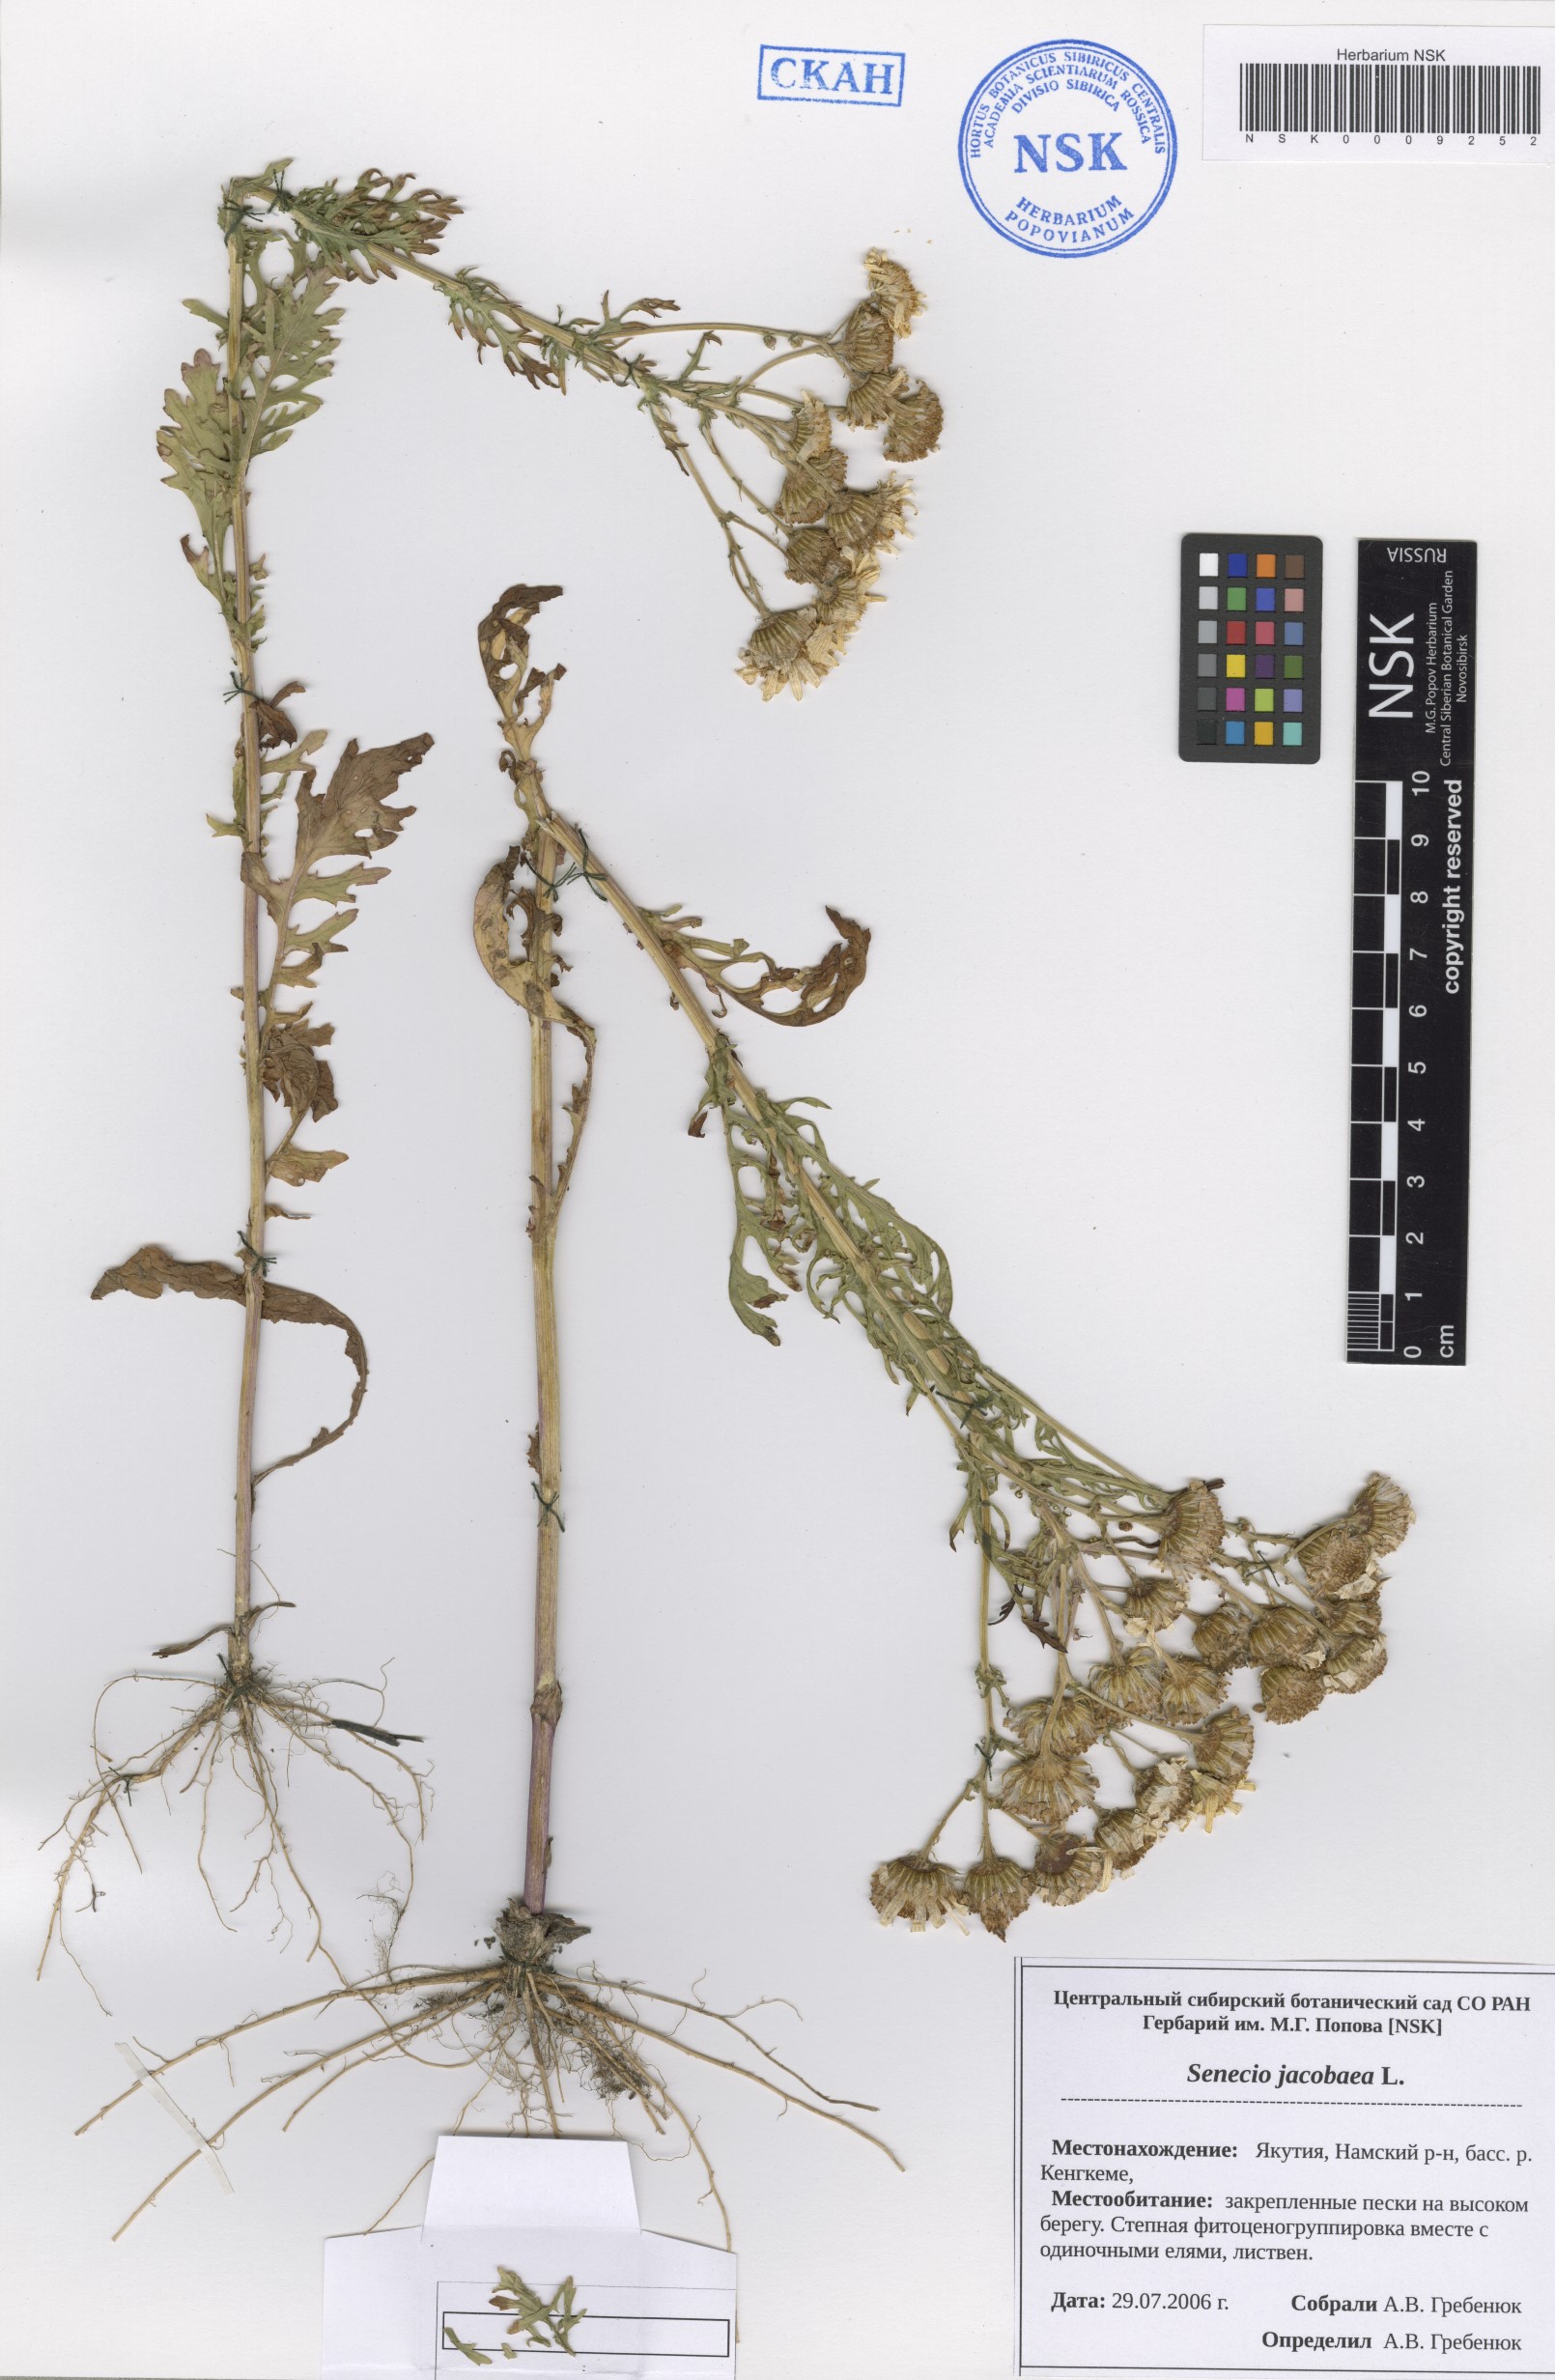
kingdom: Plantae
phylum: Tracheophyta
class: Magnoliopsida
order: Asterales
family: Asteraceae
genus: Jacobaea
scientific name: Jacobaea vulgaris
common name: Stinking willie
